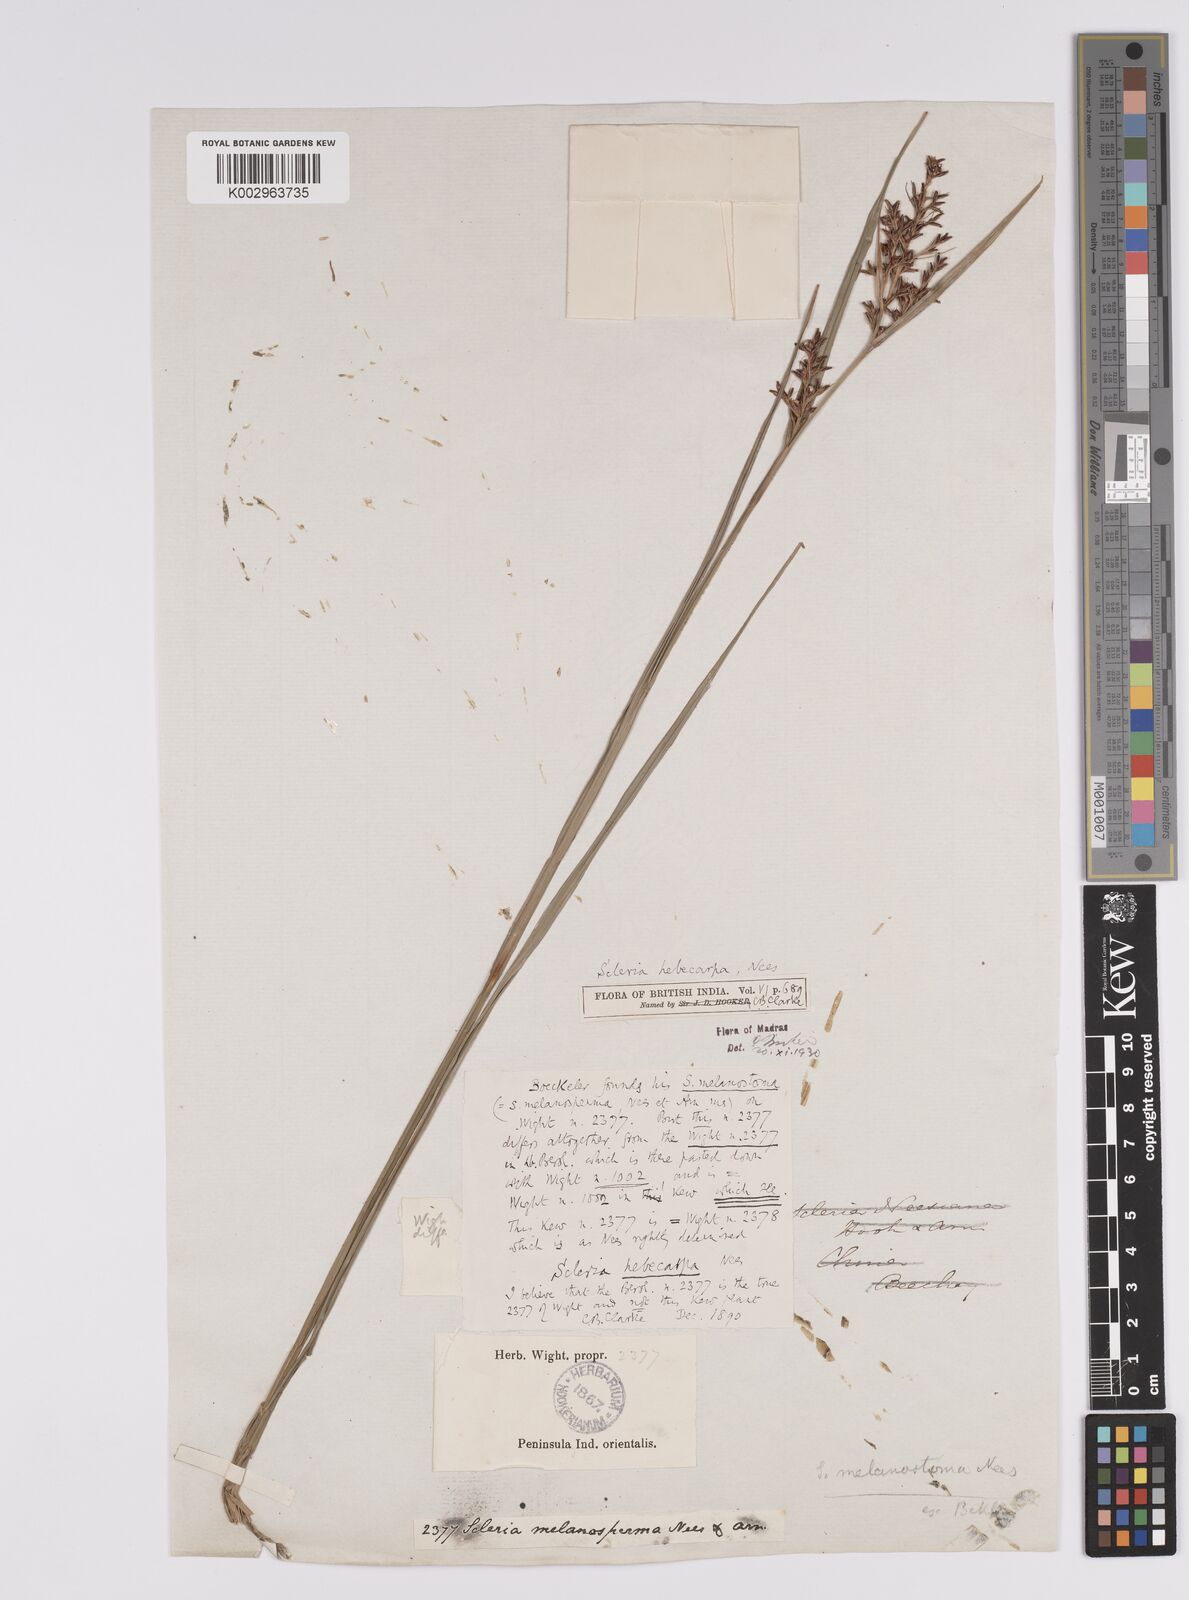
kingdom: Plantae
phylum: Tracheophyta
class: Liliopsida
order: Poales
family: Cyperaceae
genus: Scleria
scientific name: Scleria levis
